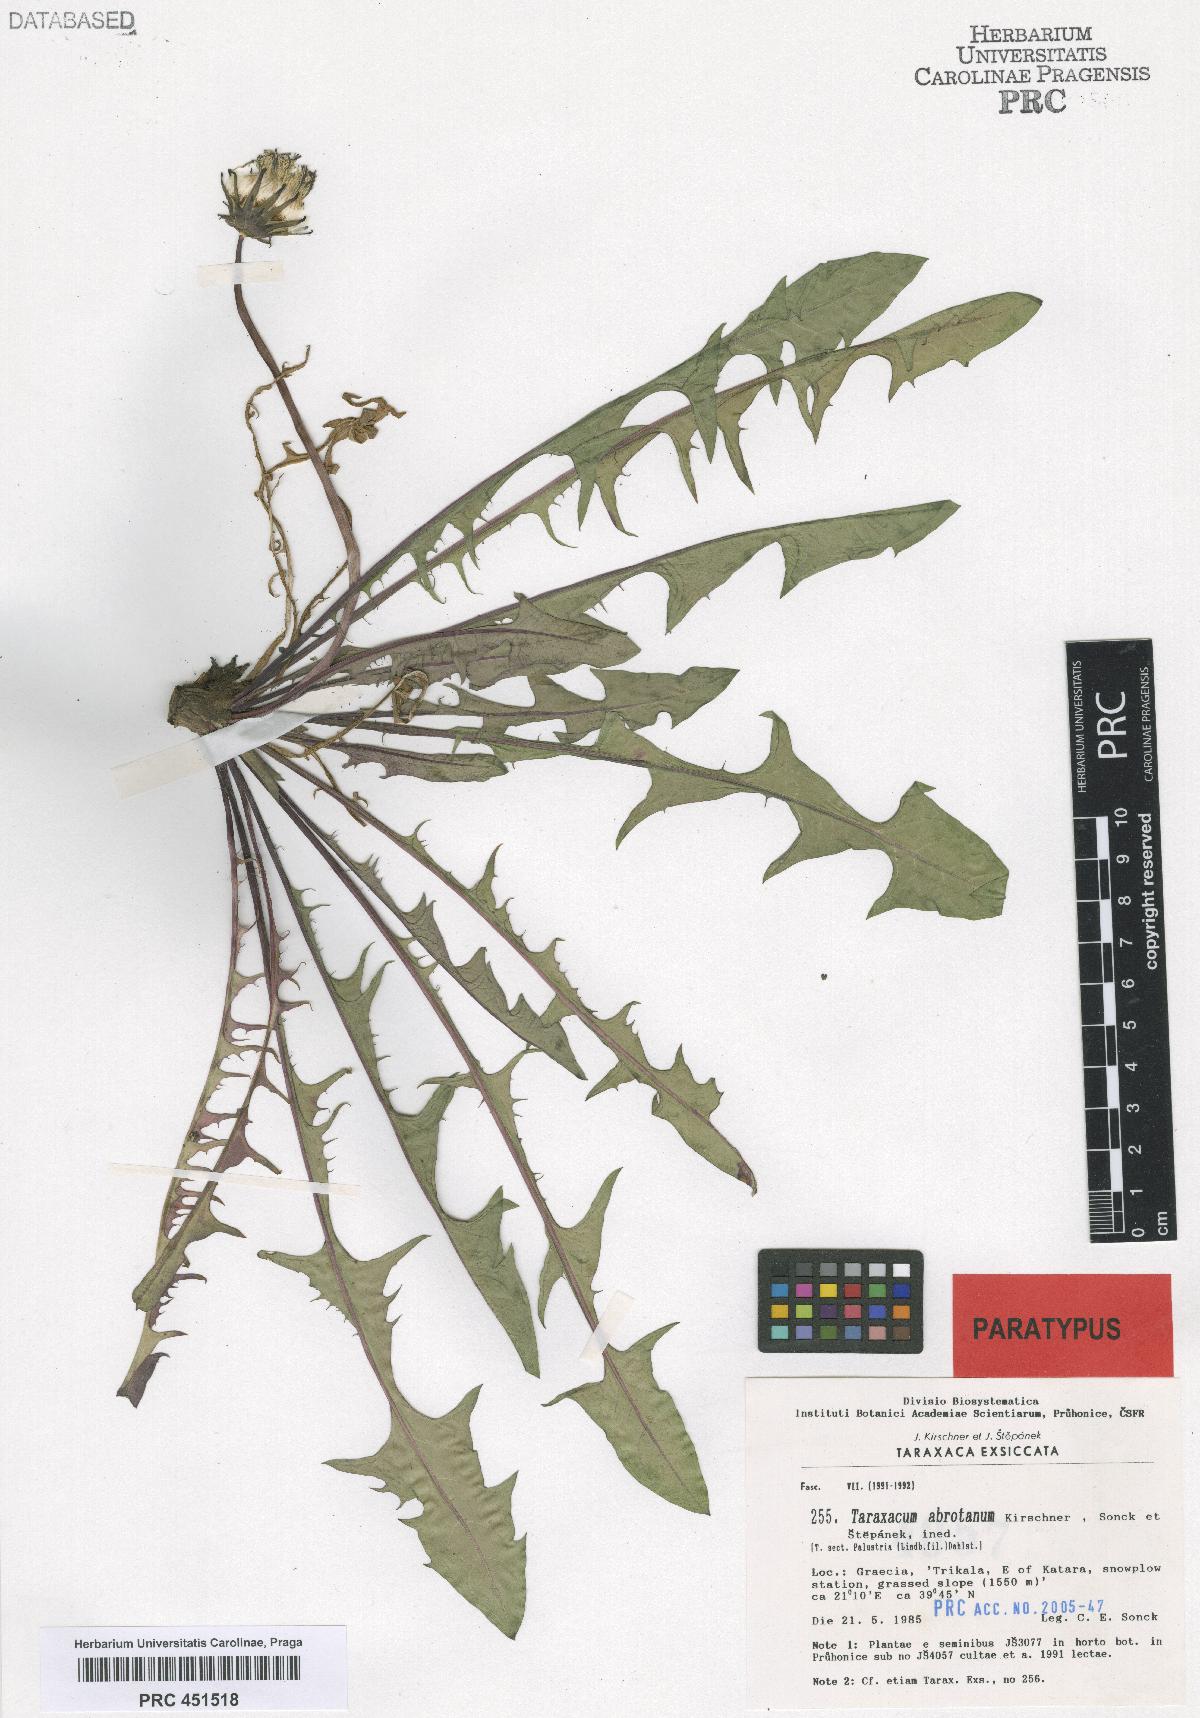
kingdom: Plantae
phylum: Tracheophyta
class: Magnoliopsida
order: Asterales
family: Asteraceae
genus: Taraxacum
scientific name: Taraxacum apiculatiforme
